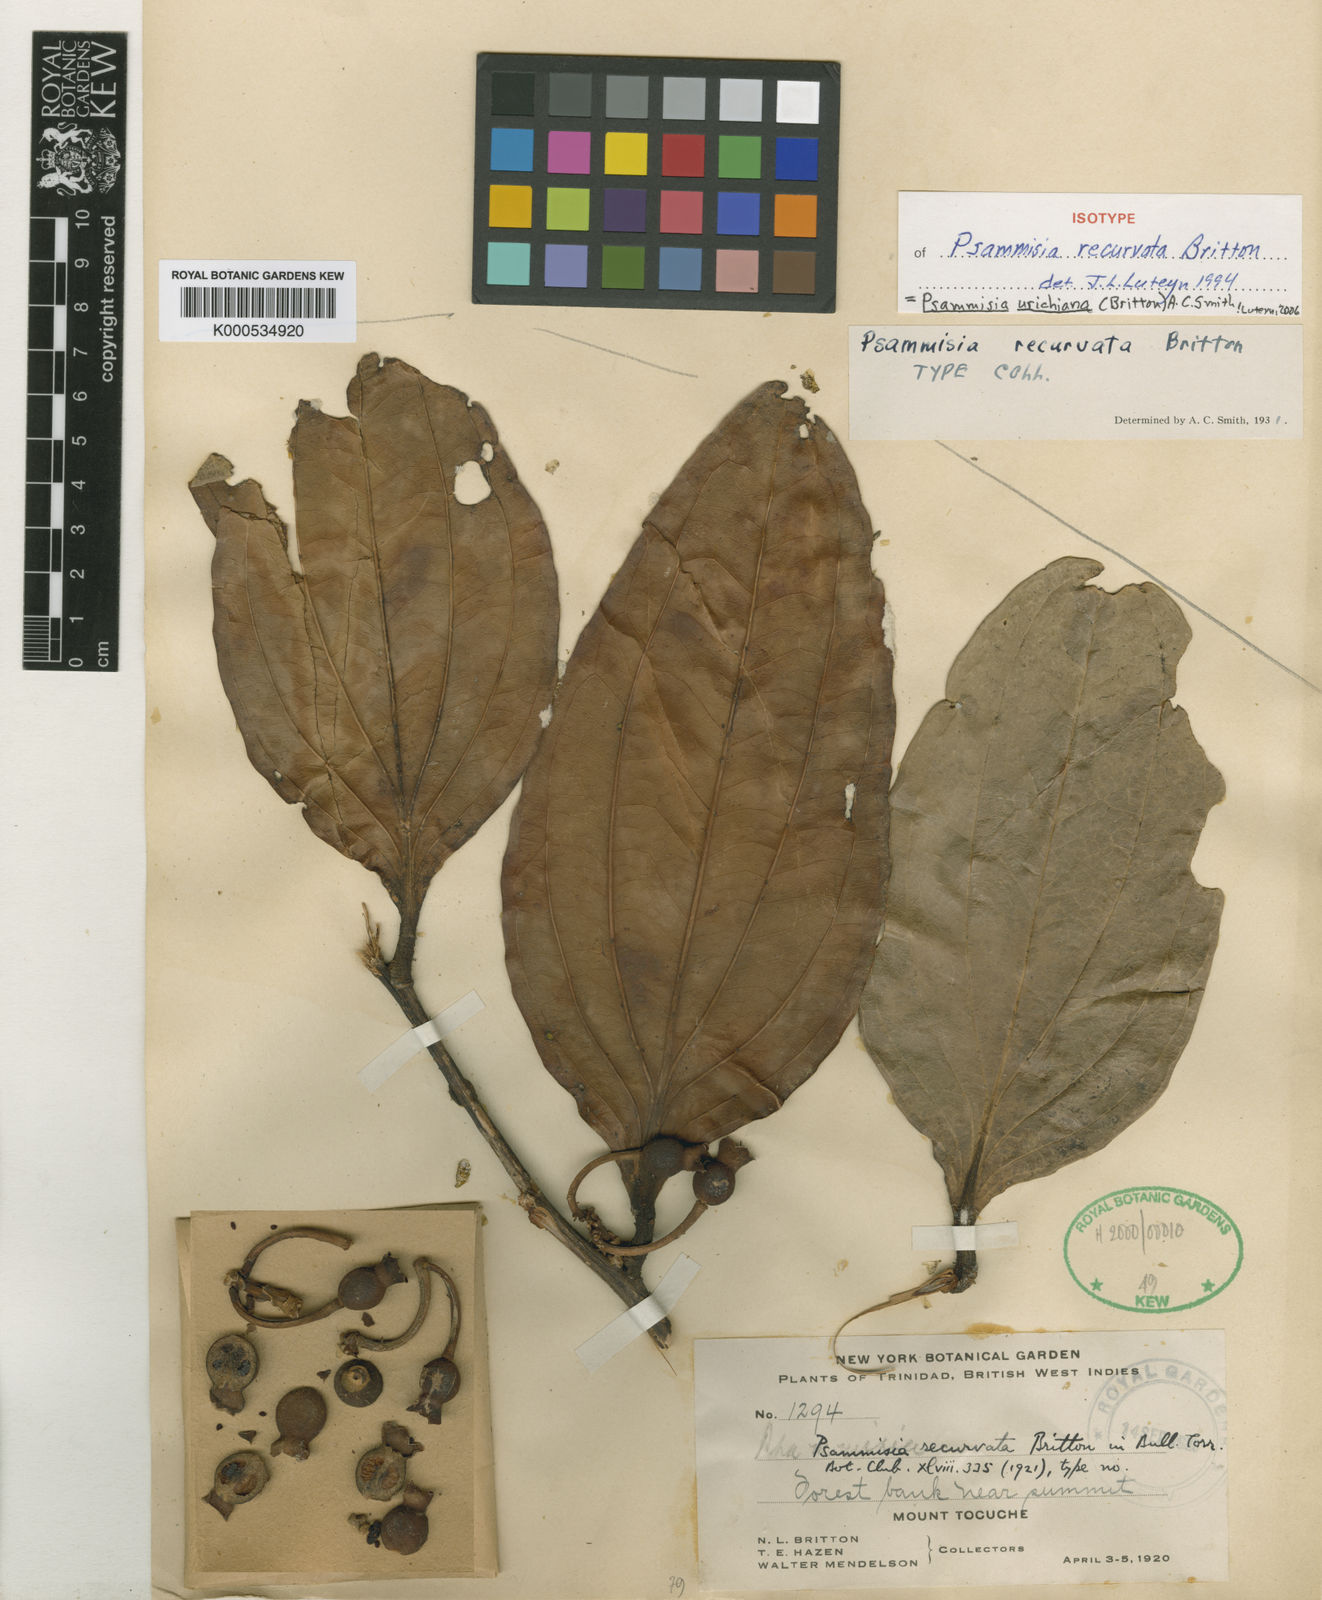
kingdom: Plantae
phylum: Tracheophyta
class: Magnoliopsida
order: Ericales
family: Ericaceae
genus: Psammisia
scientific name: Psammisia urichiana
